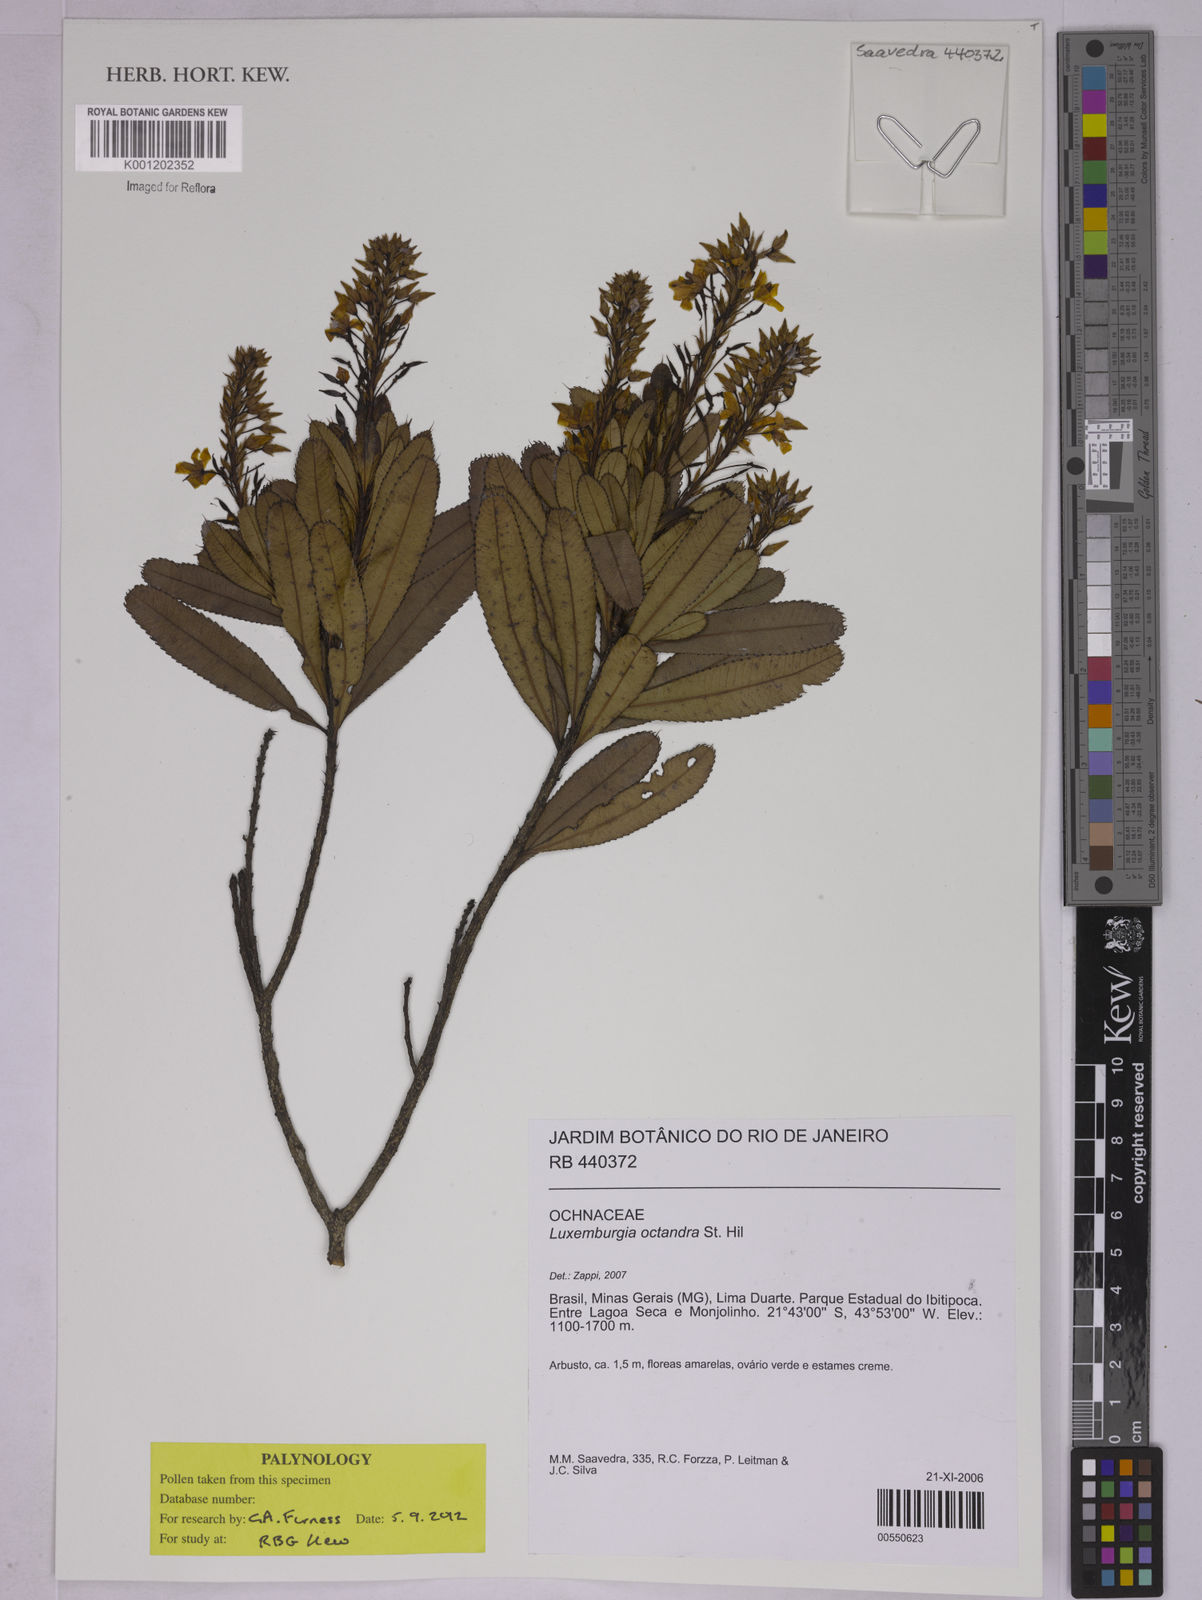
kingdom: Plantae
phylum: Tracheophyta
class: Magnoliopsida
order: Malpighiales
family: Ochnaceae
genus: Luxemburgia
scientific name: Luxemburgia octandra
